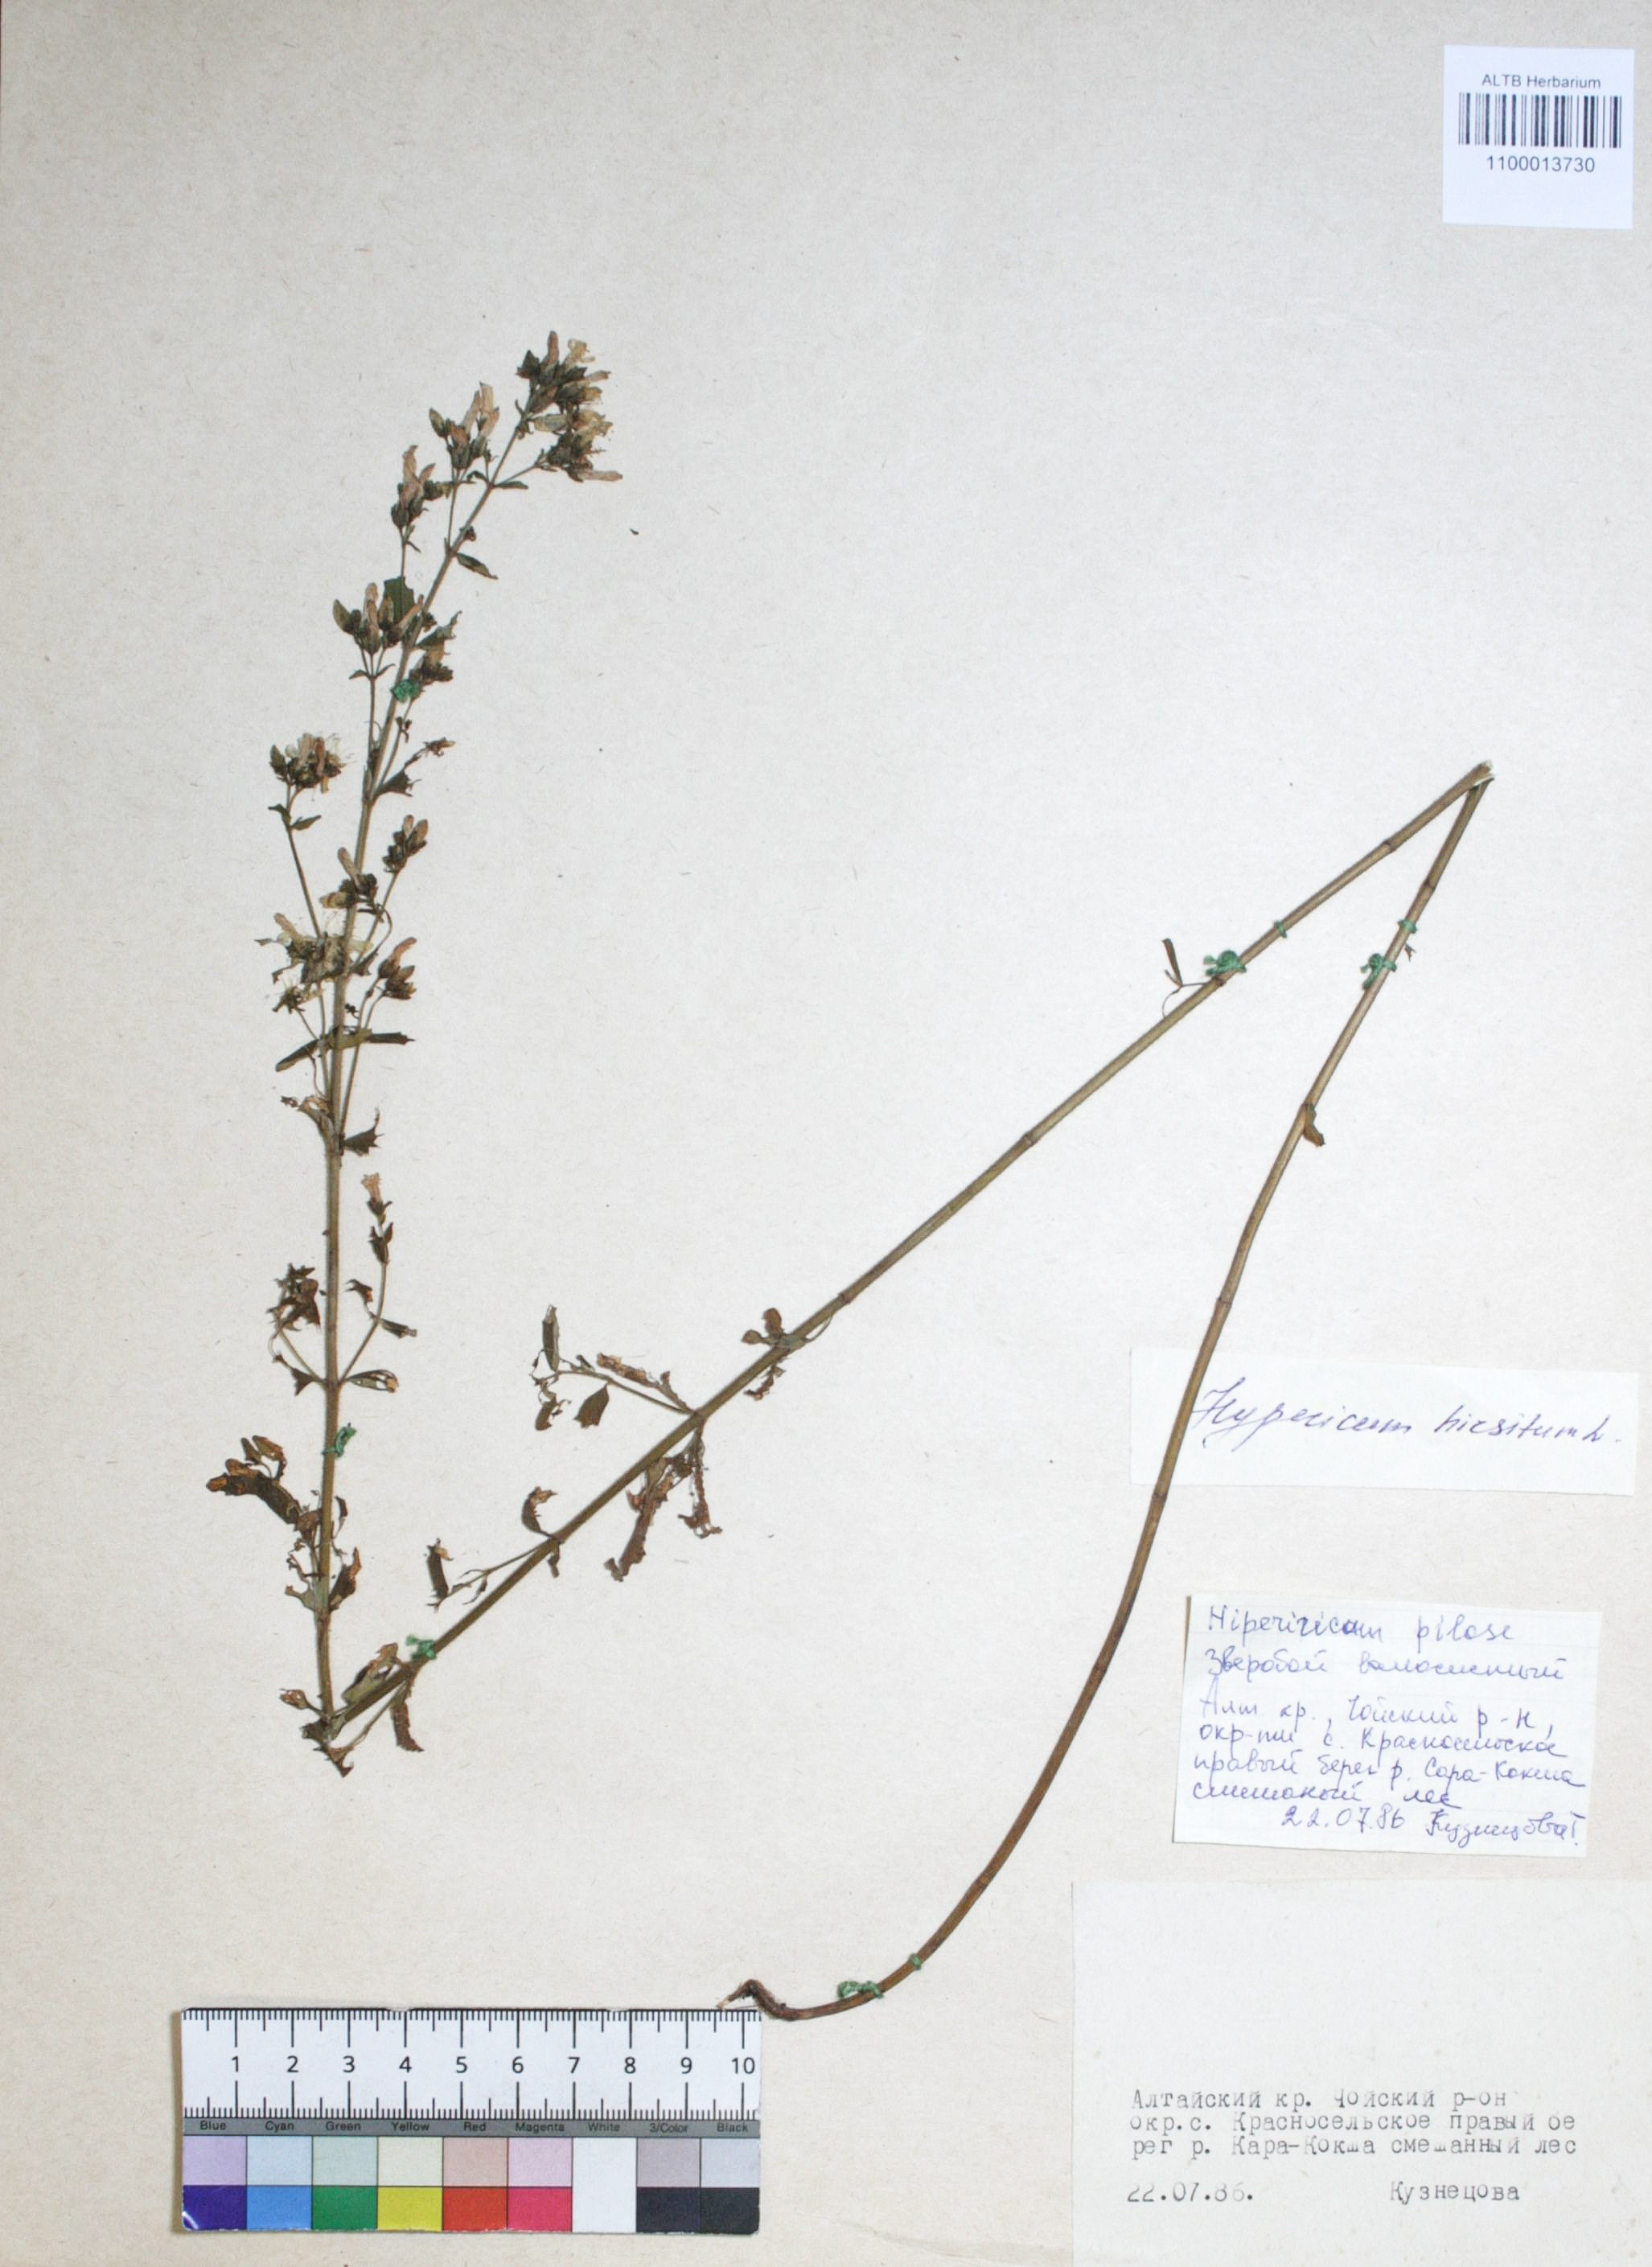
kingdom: Plantae
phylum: Tracheophyta
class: Magnoliopsida
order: Malpighiales
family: Hypericaceae
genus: Hypericum
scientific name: Hypericum hirsutum
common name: Hairy st. john's-wort
